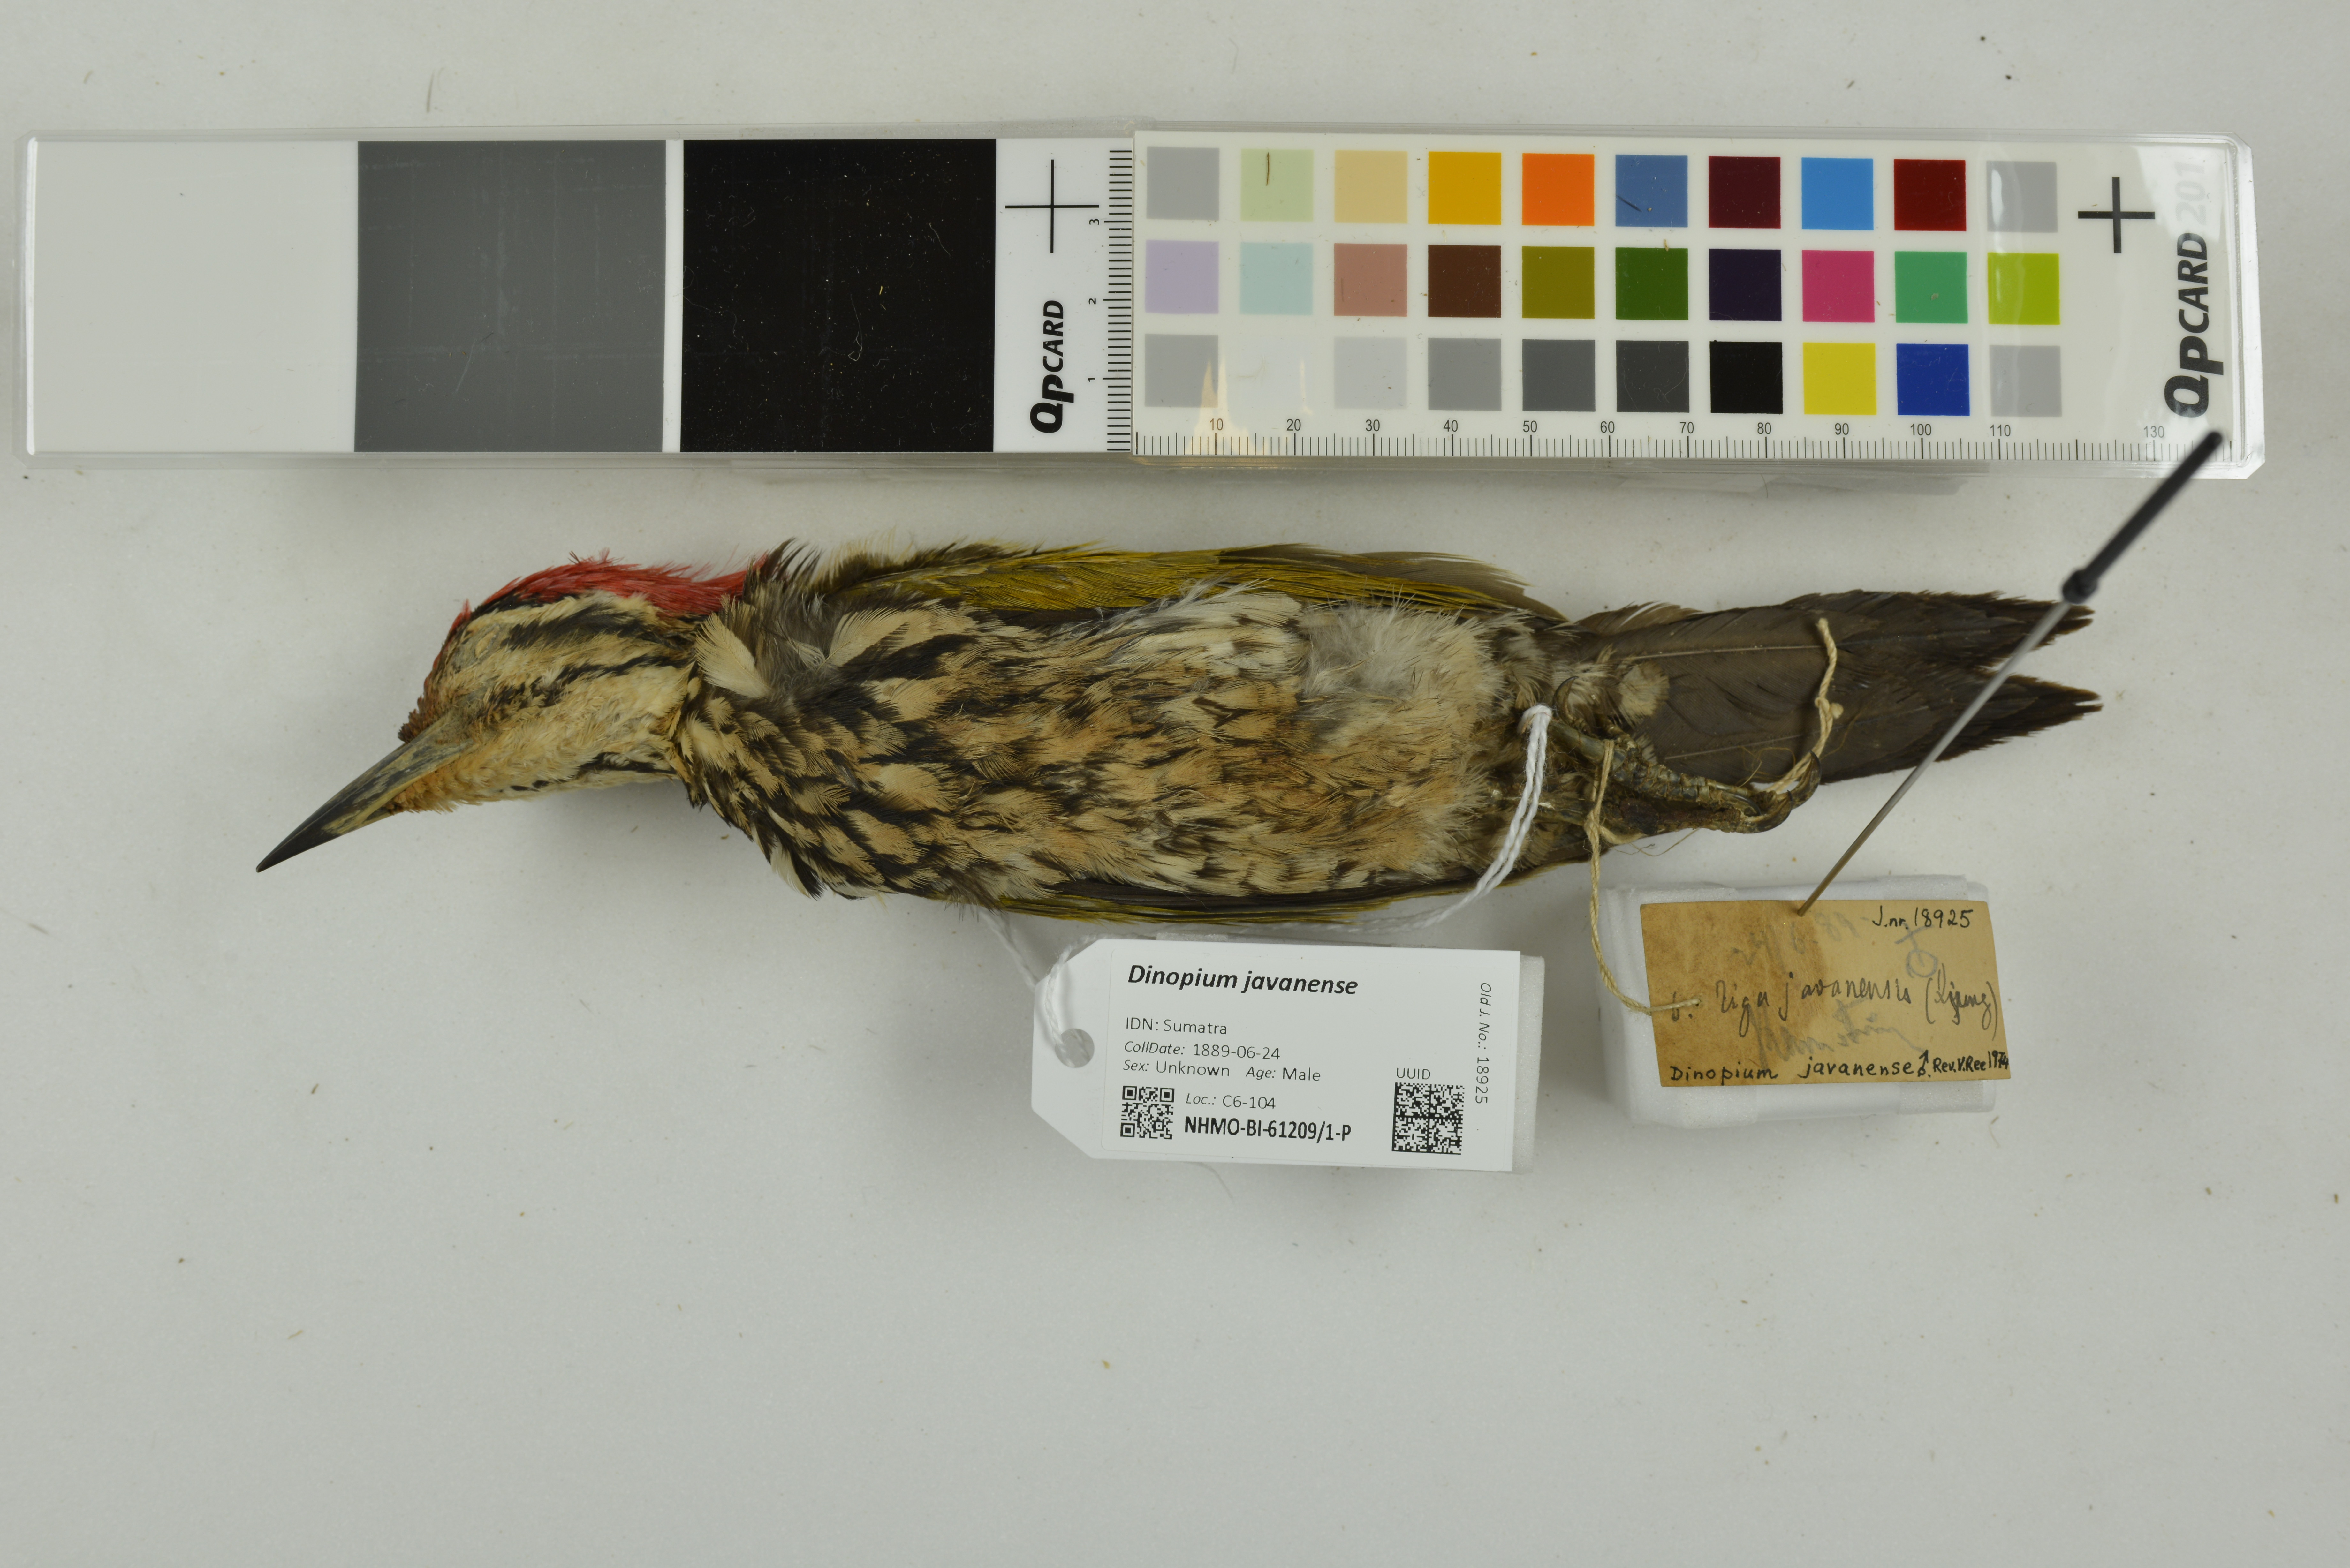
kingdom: Animalia
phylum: Chordata
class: Aves
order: Piciformes
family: Picidae
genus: Dinopium
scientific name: Dinopium javanense
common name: Common flameback
